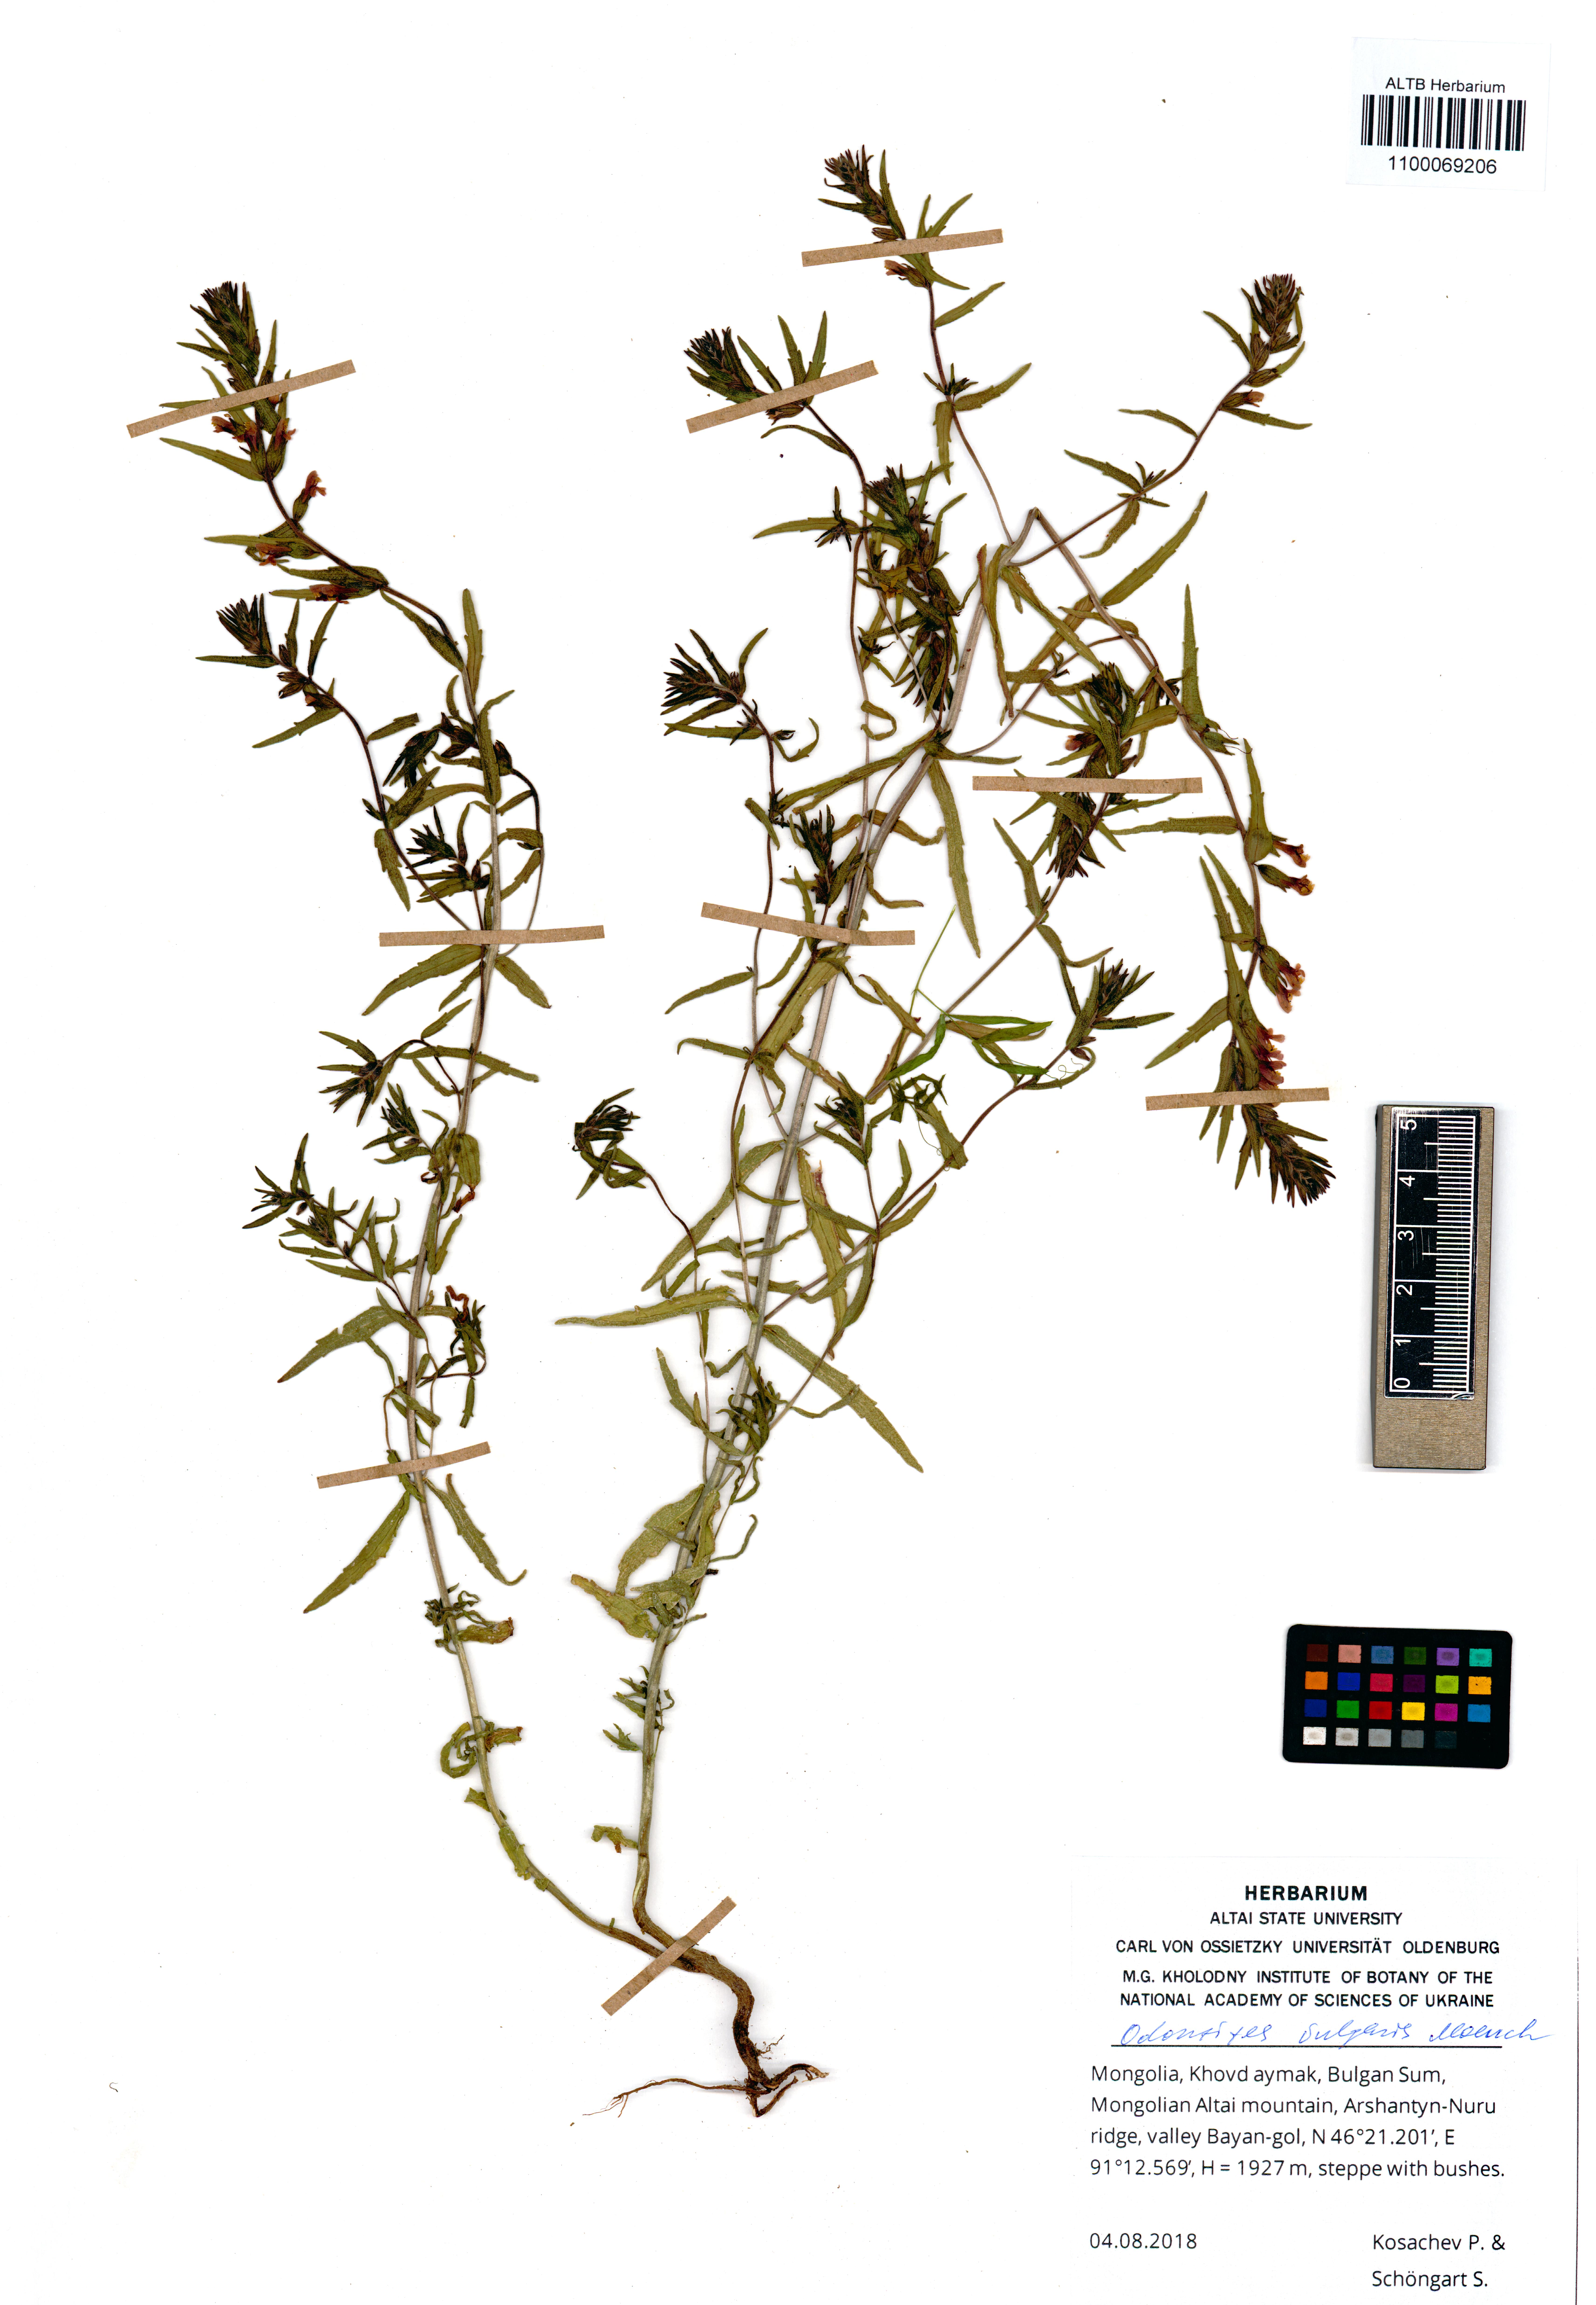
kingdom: Plantae
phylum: Tracheophyta
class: Magnoliopsida
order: Lamiales
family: Orobanchaceae
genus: Odontites
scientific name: Odontites vulgaris
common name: Broomrape
